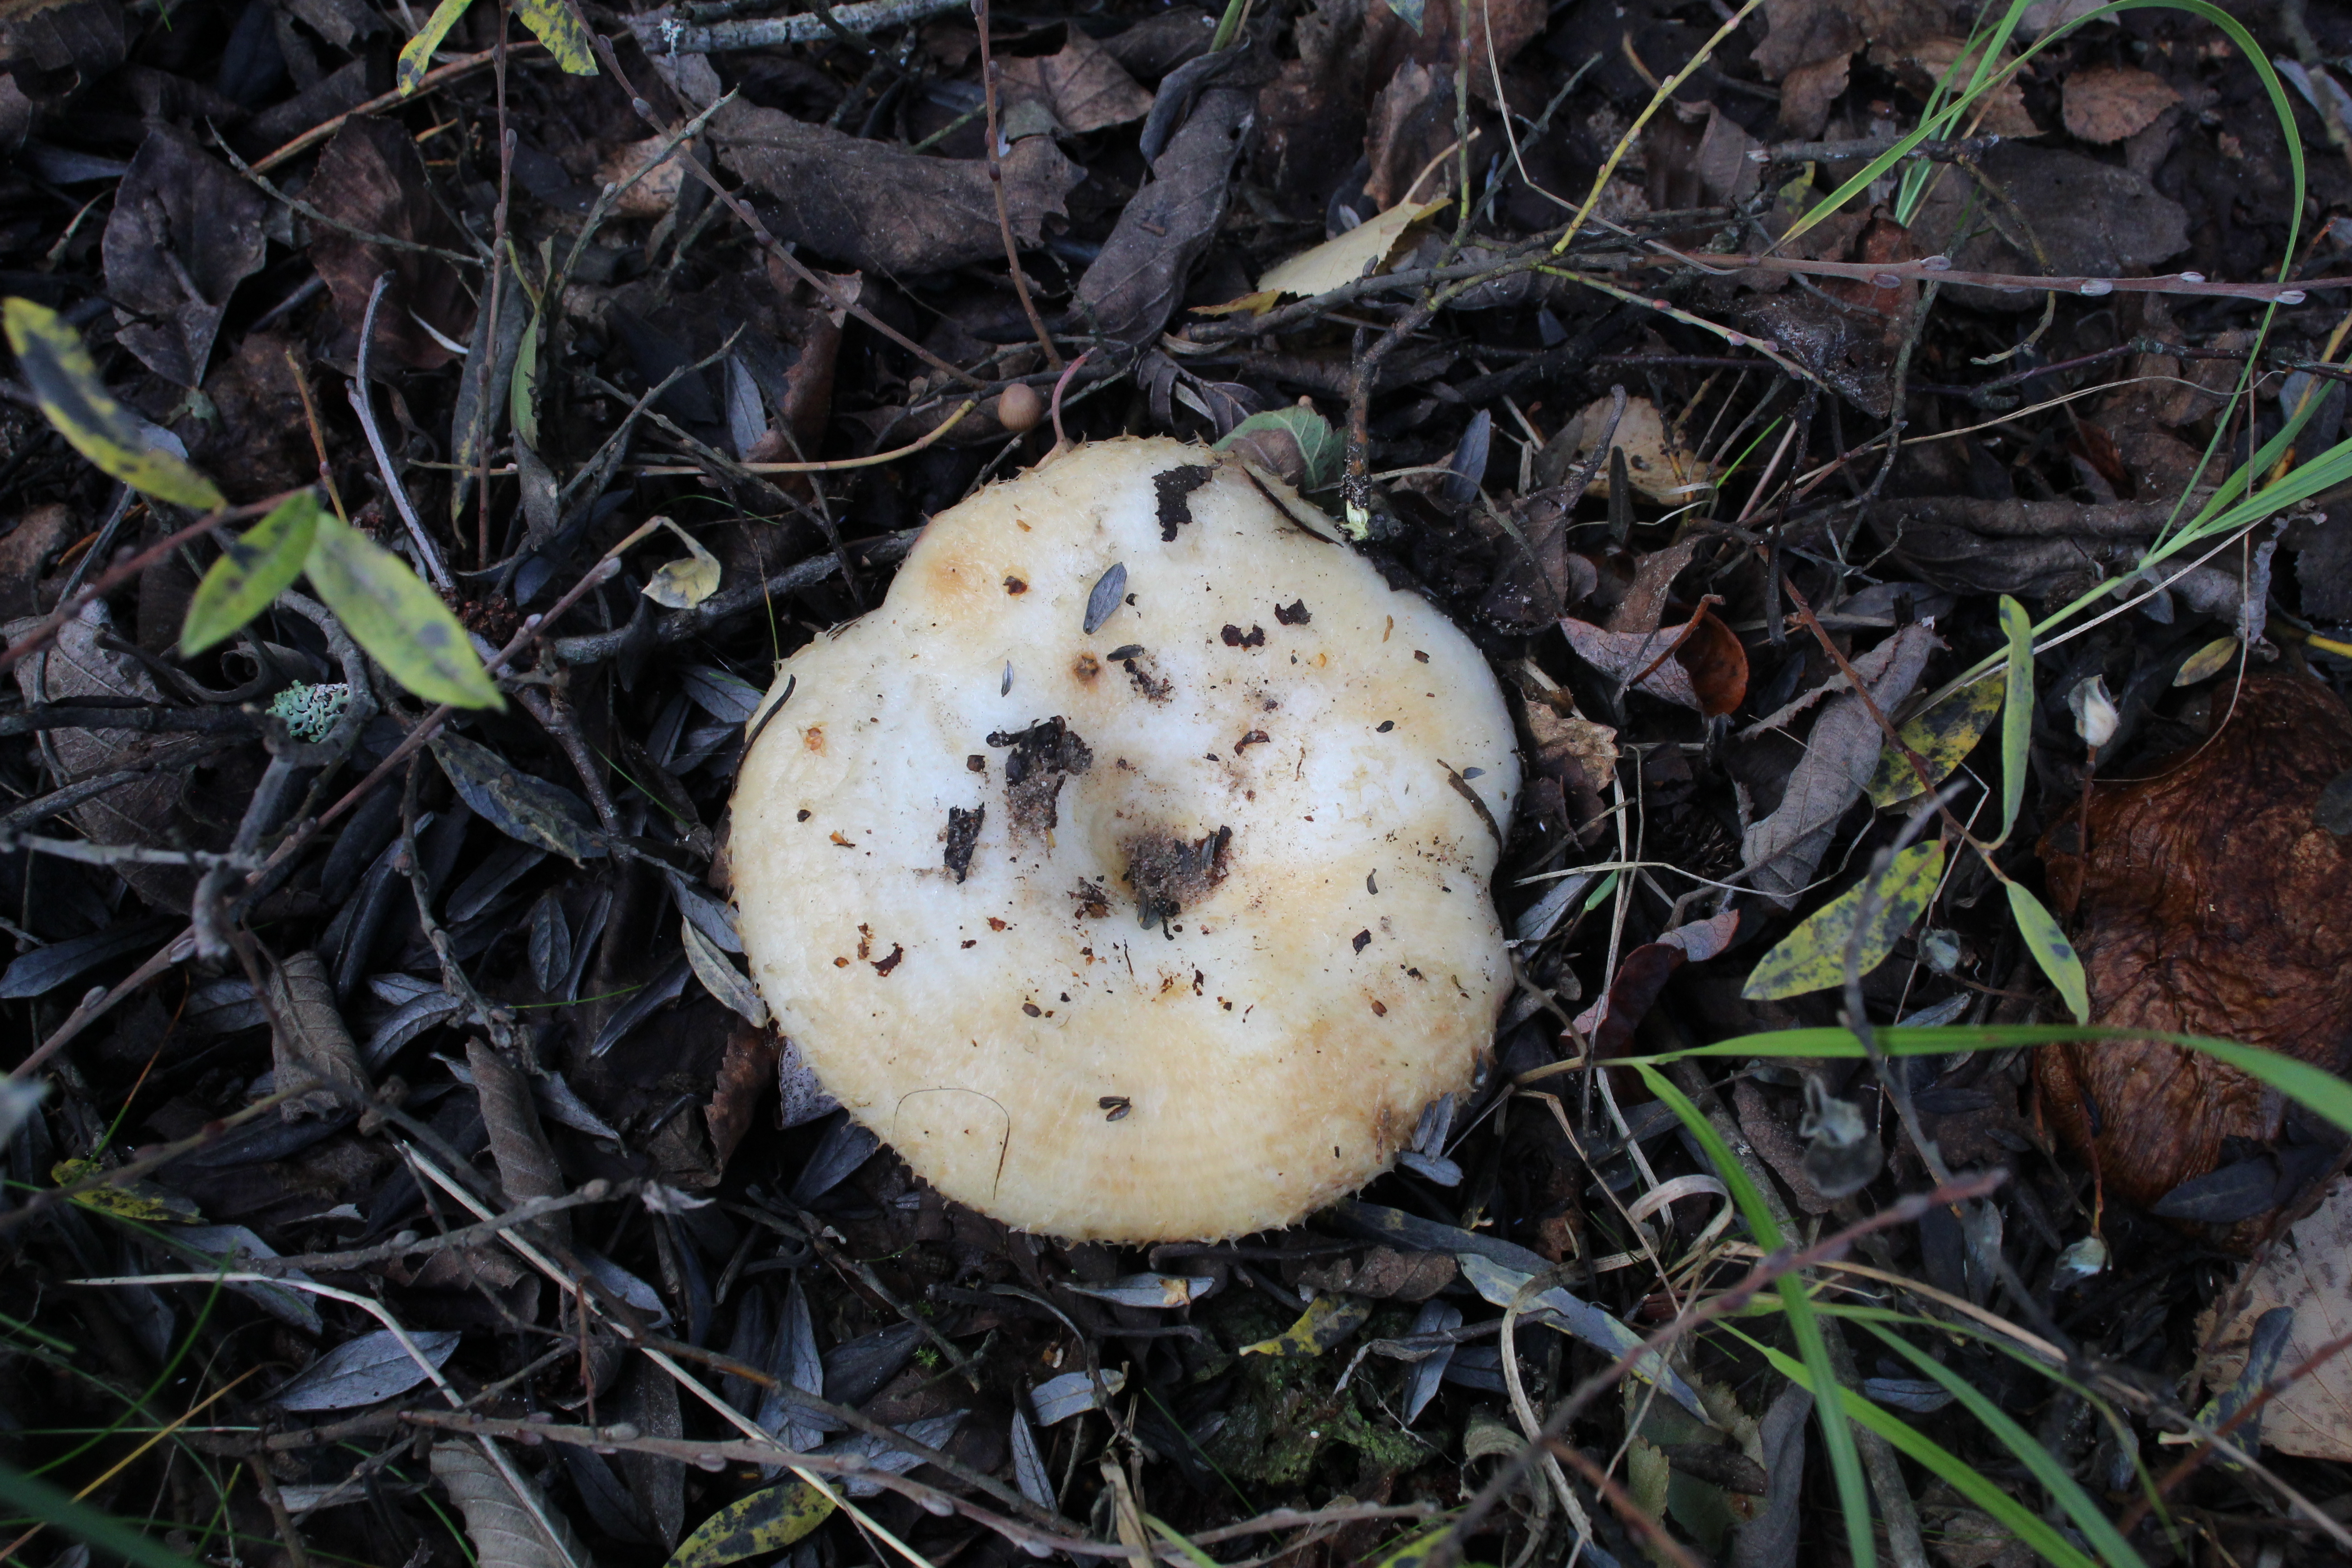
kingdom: Fungi
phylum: Basidiomycota
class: Agaricomycetes
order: Russulales
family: Russulaceae
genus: Lactarius
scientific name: Lactarius aquizonatus
